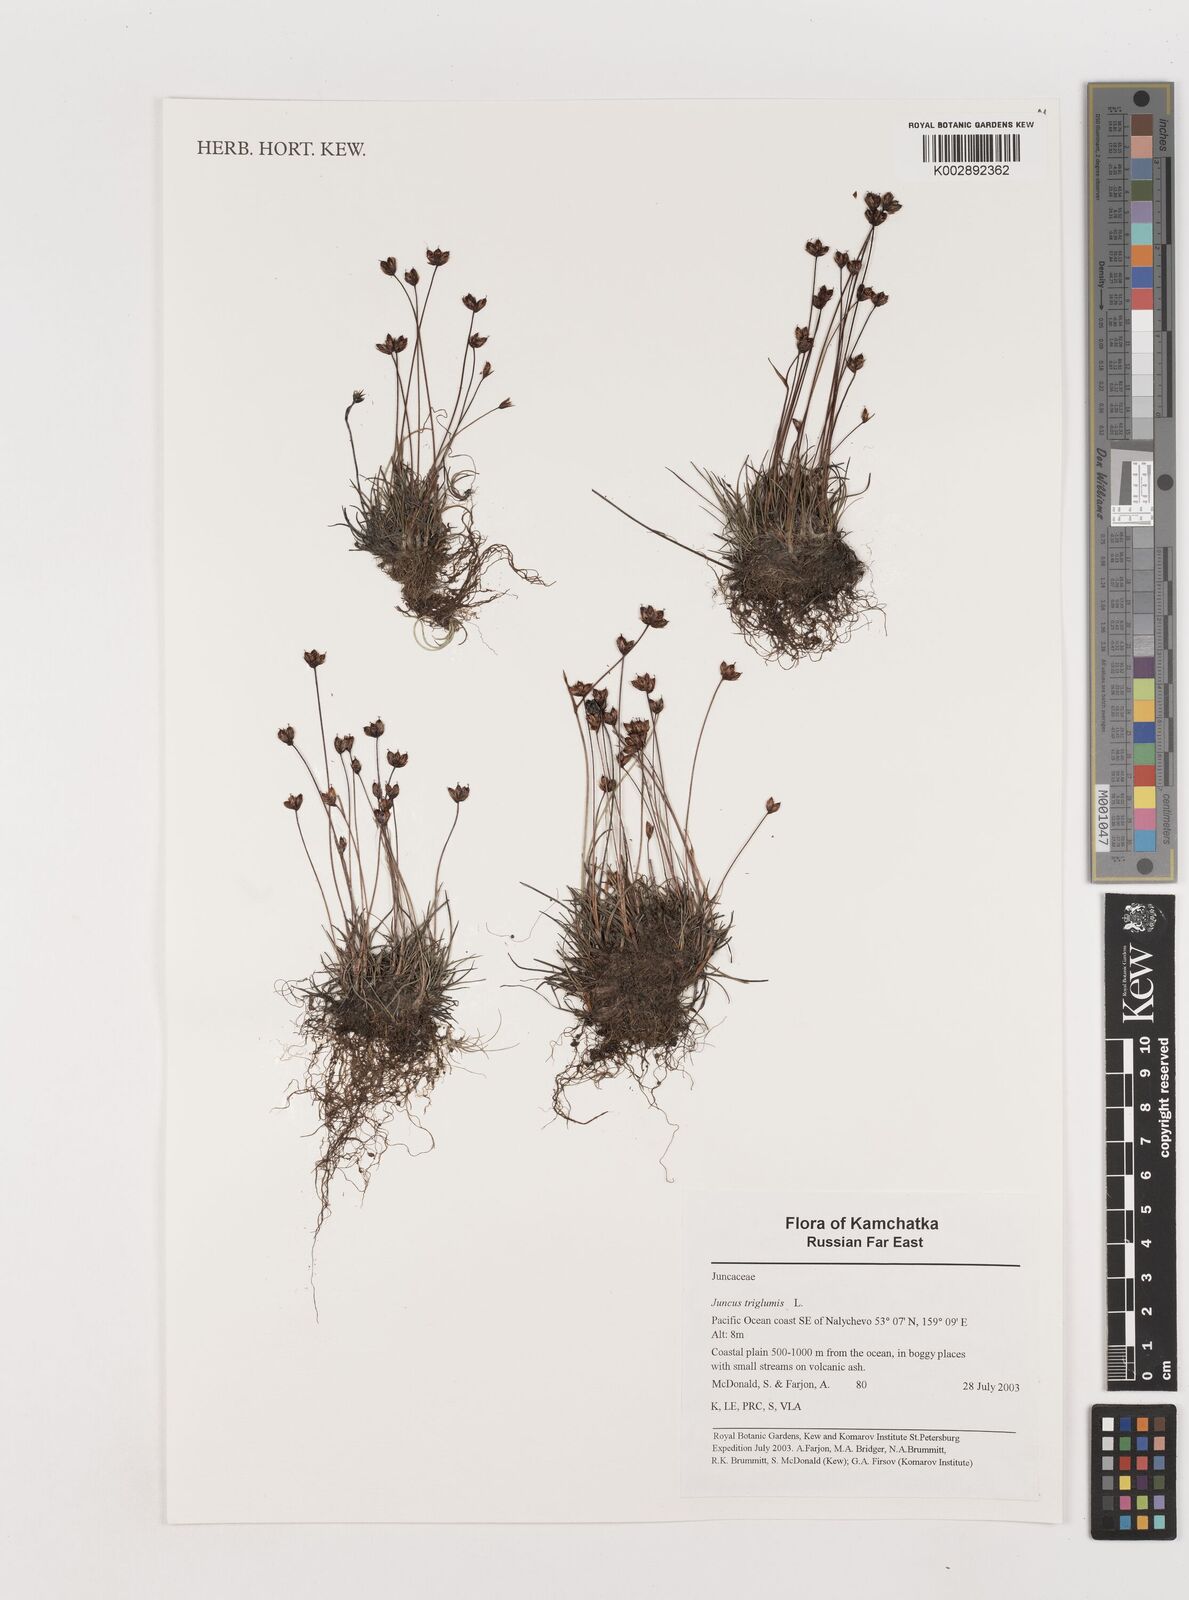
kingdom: Plantae
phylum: Tracheophyta
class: Liliopsida
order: Poales
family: Juncaceae
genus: Juncus
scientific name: Juncus triglumis
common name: Three-flowered rush
